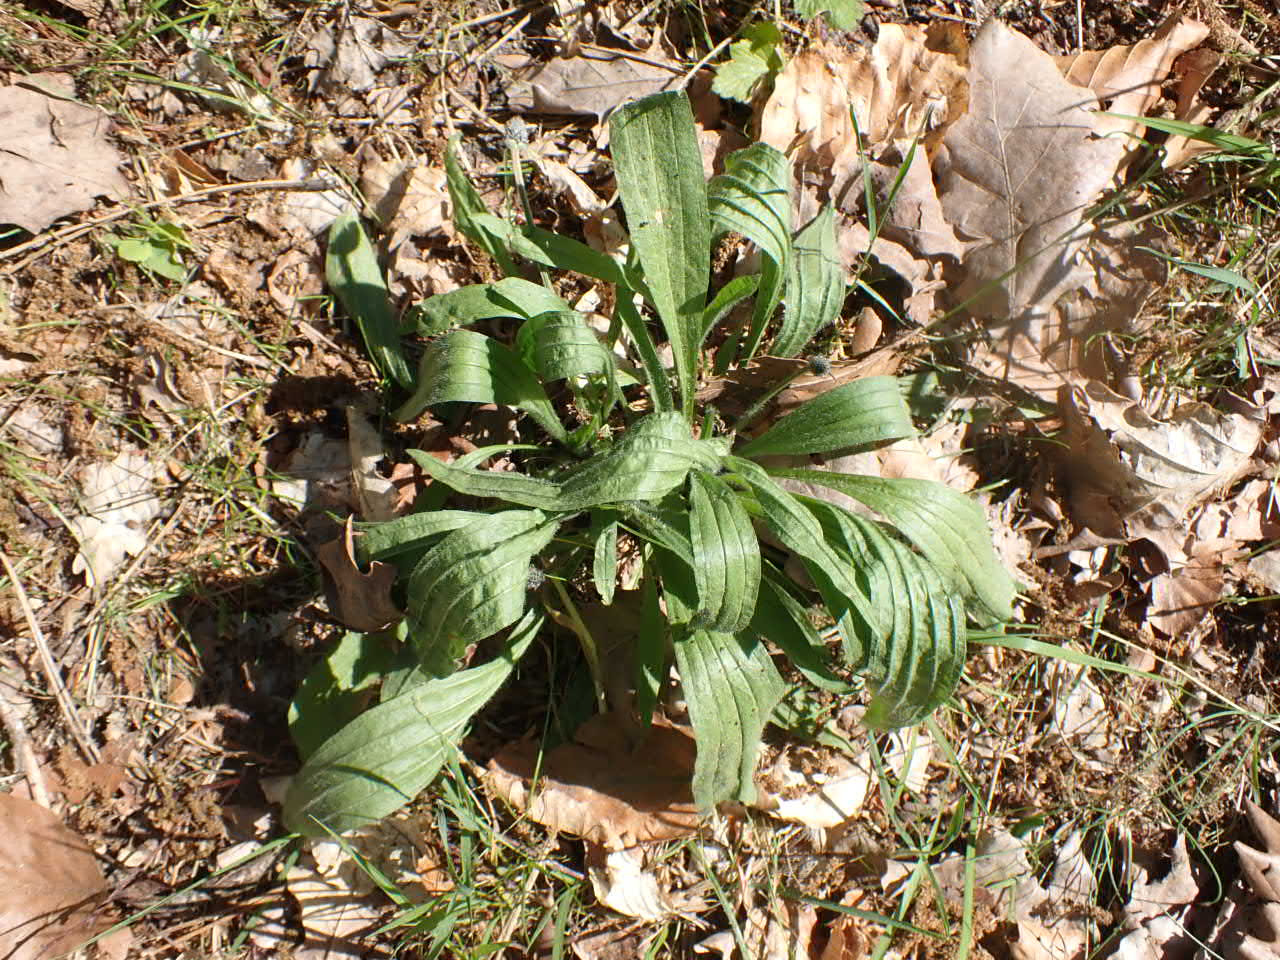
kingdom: Plantae
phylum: Tracheophyta
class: Magnoliopsida
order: Lamiales
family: Plantaginaceae
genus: Plantago
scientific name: Plantago lanceolata
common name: Lancet-vejbred
